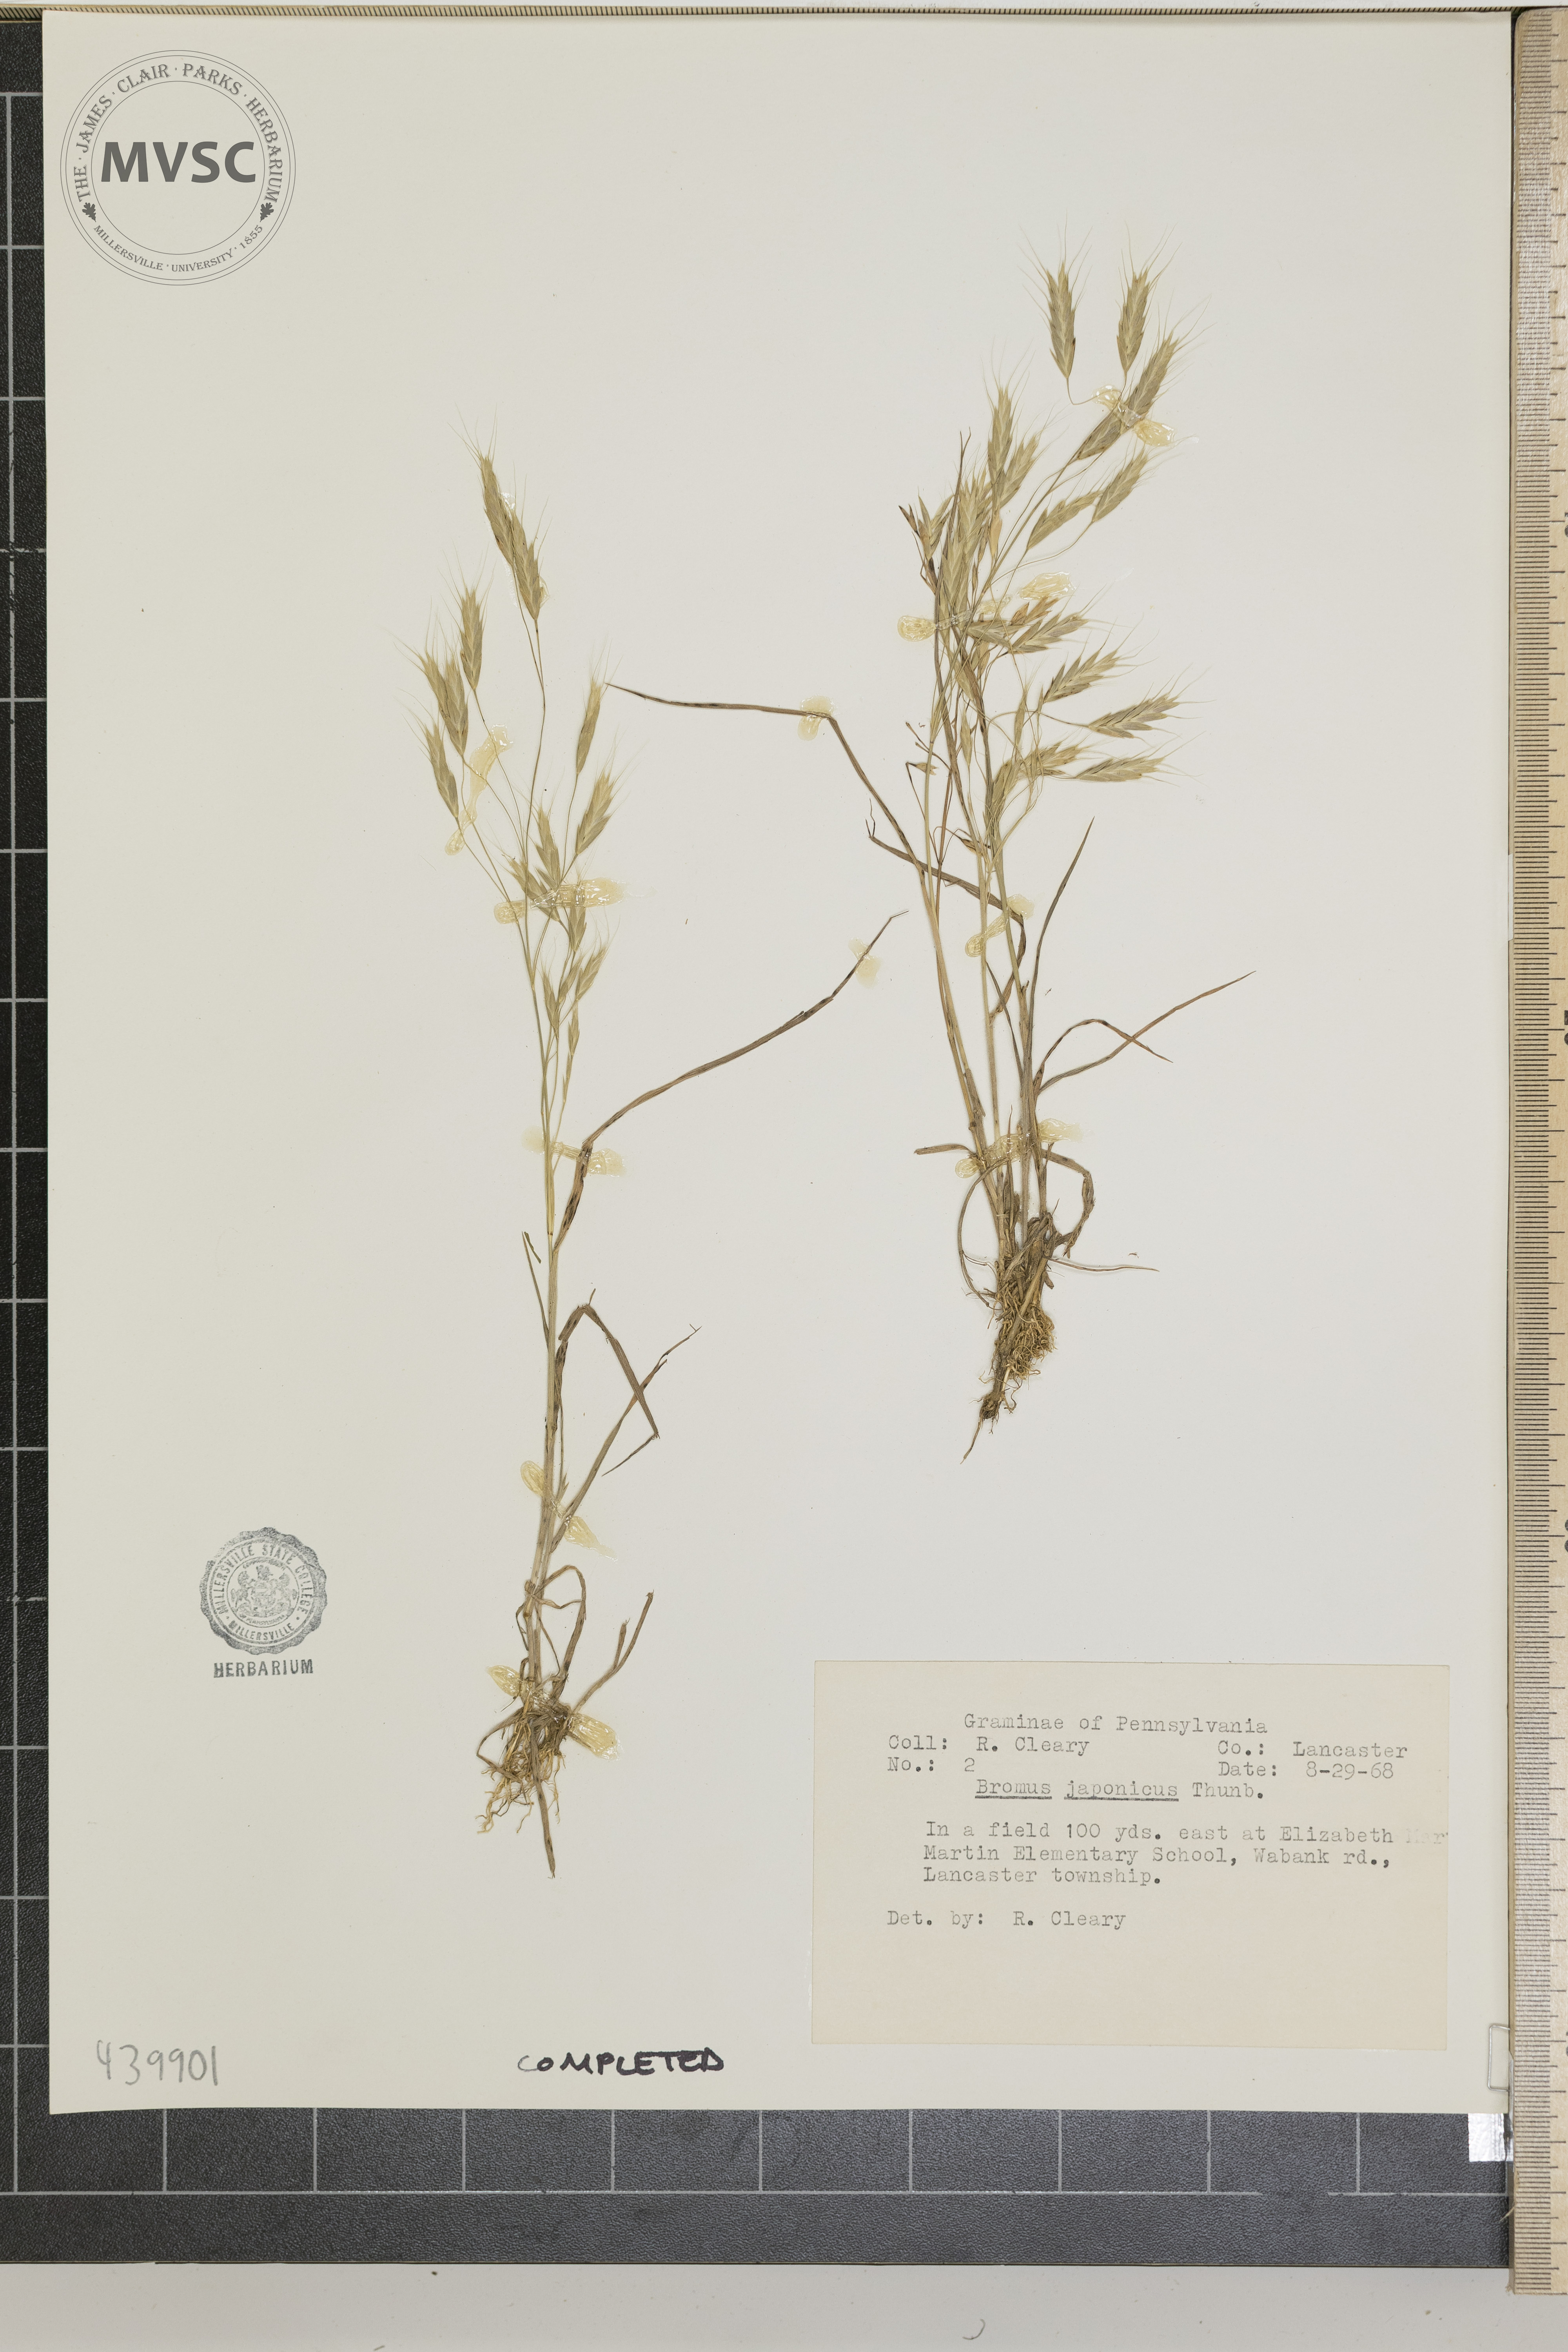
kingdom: Plantae
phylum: Tracheophyta
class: Liliopsida
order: Poales
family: Poaceae
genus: Bromus
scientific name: Bromus japonicus
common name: Japanese brome
